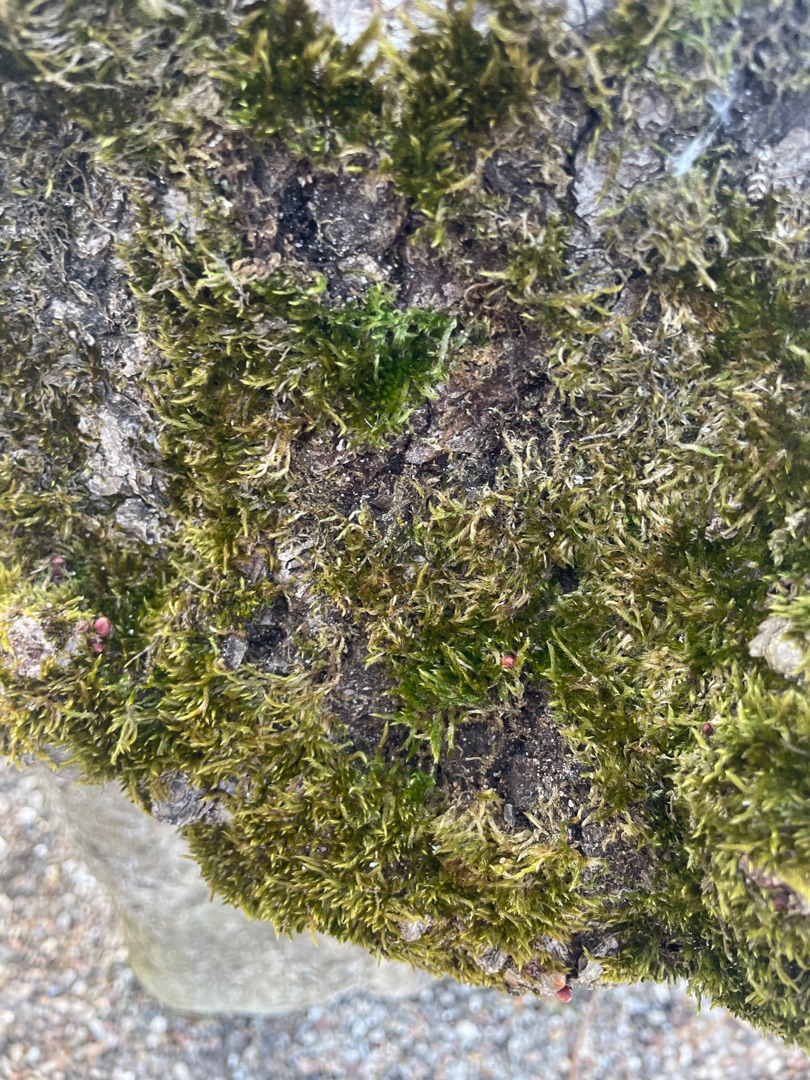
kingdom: Plantae
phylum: Bryophyta
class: Bryopsida
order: Hypnales
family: Hypnaceae
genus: Hypnum
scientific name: Hypnum cupressiforme
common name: Almindelig cypresmos
